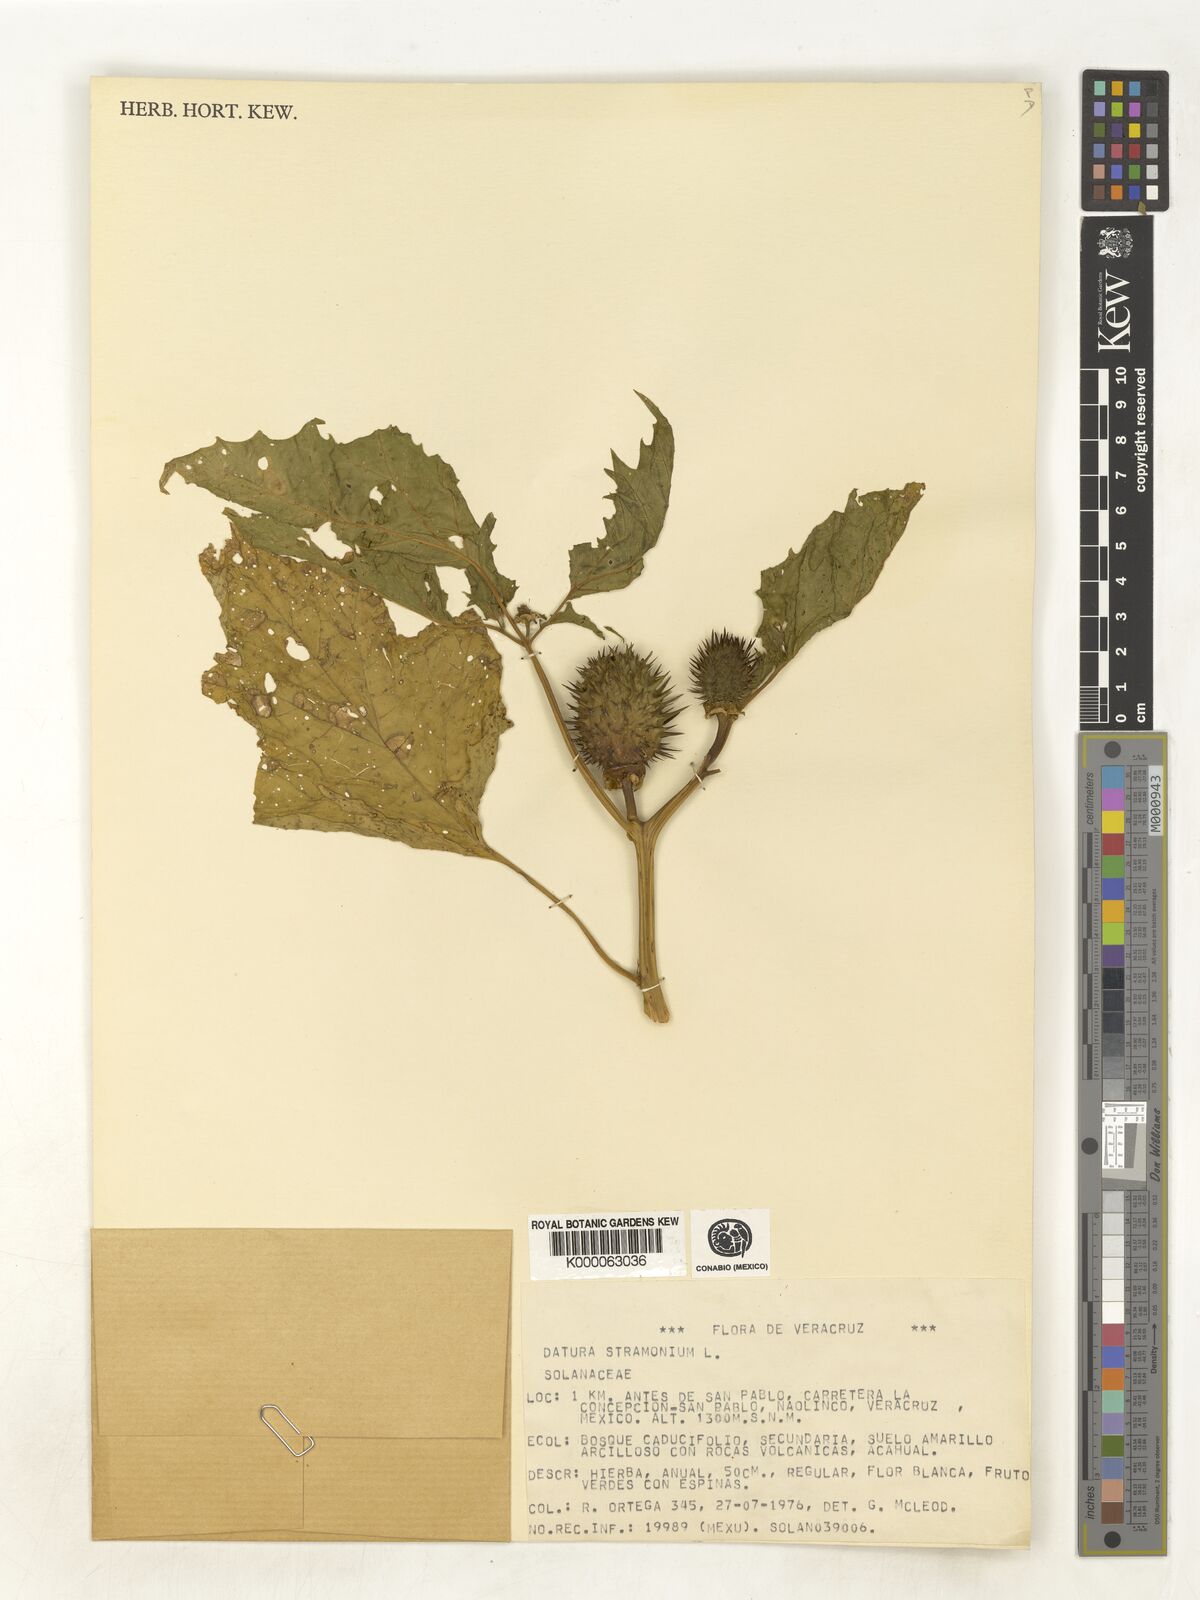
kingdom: Plantae
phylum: Tracheophyta
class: Magnoliopsida
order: Solanales
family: Solanaceae
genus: Datura
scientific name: Datura stramonium
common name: Thorn-apple
